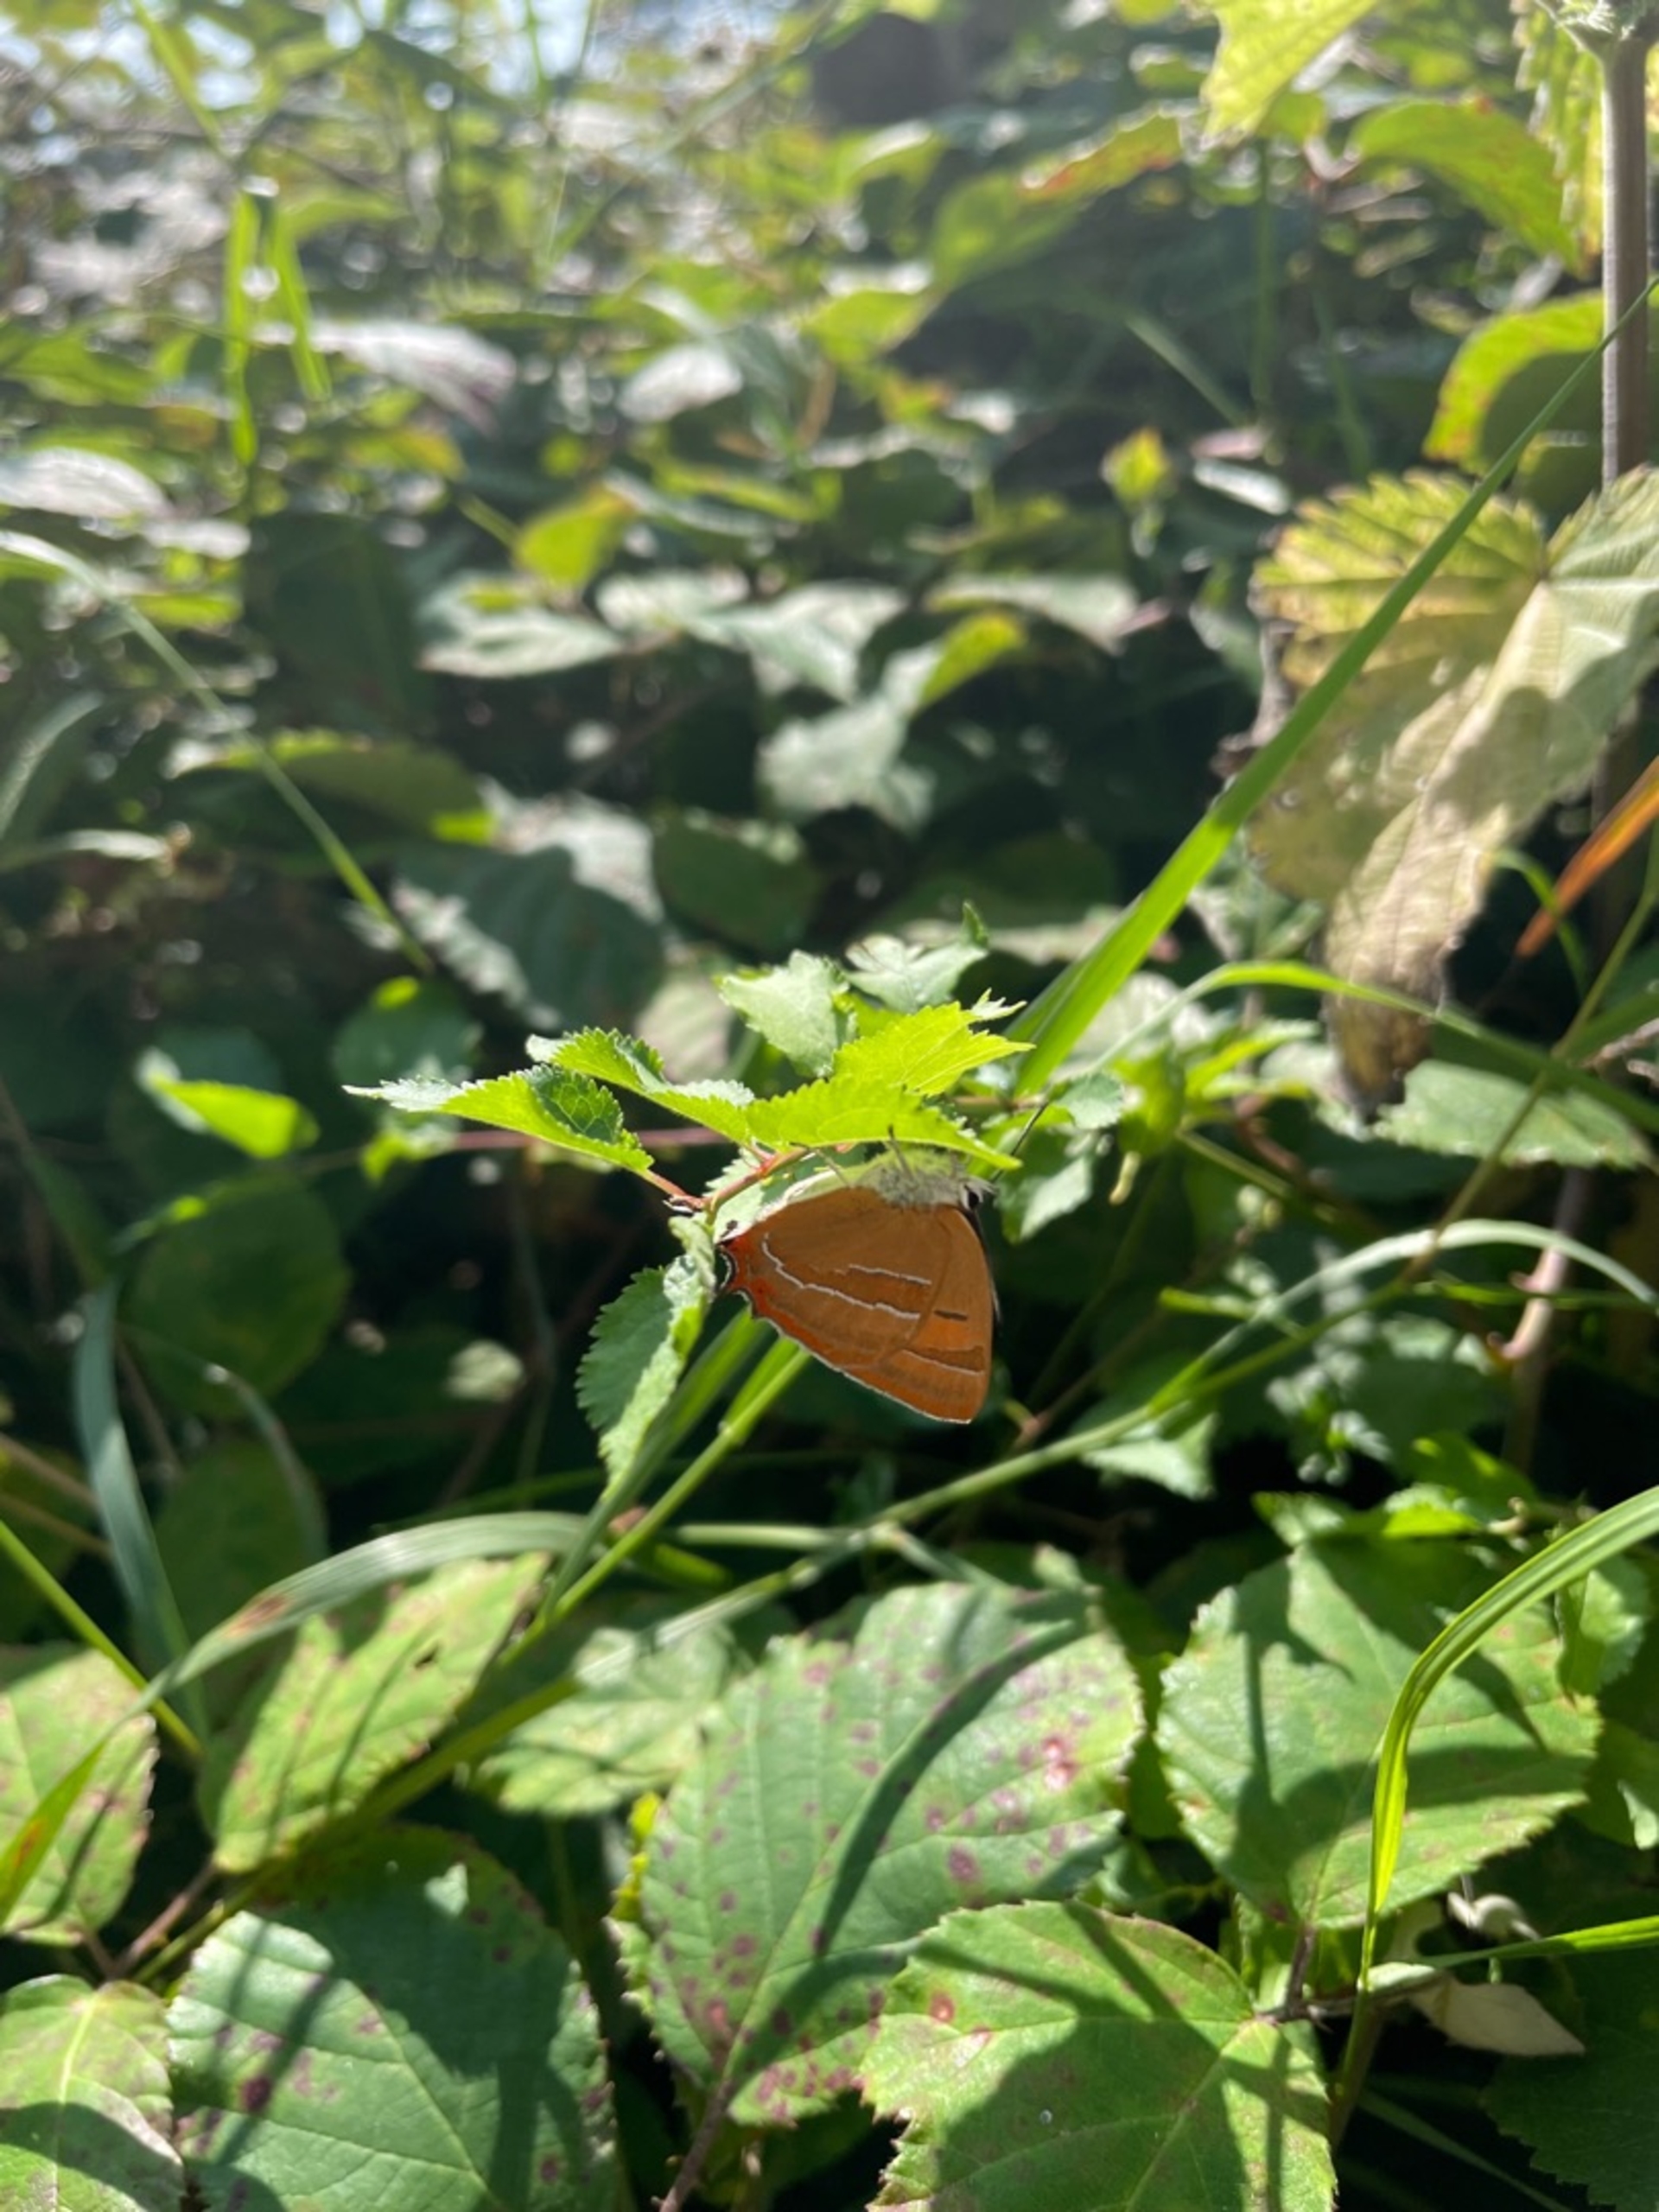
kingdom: Animalia
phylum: Arthropoda
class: Insecta
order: Lepidoptera
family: Lycaenidae
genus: Thecla
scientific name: Thecla betulae
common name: Guldhale
